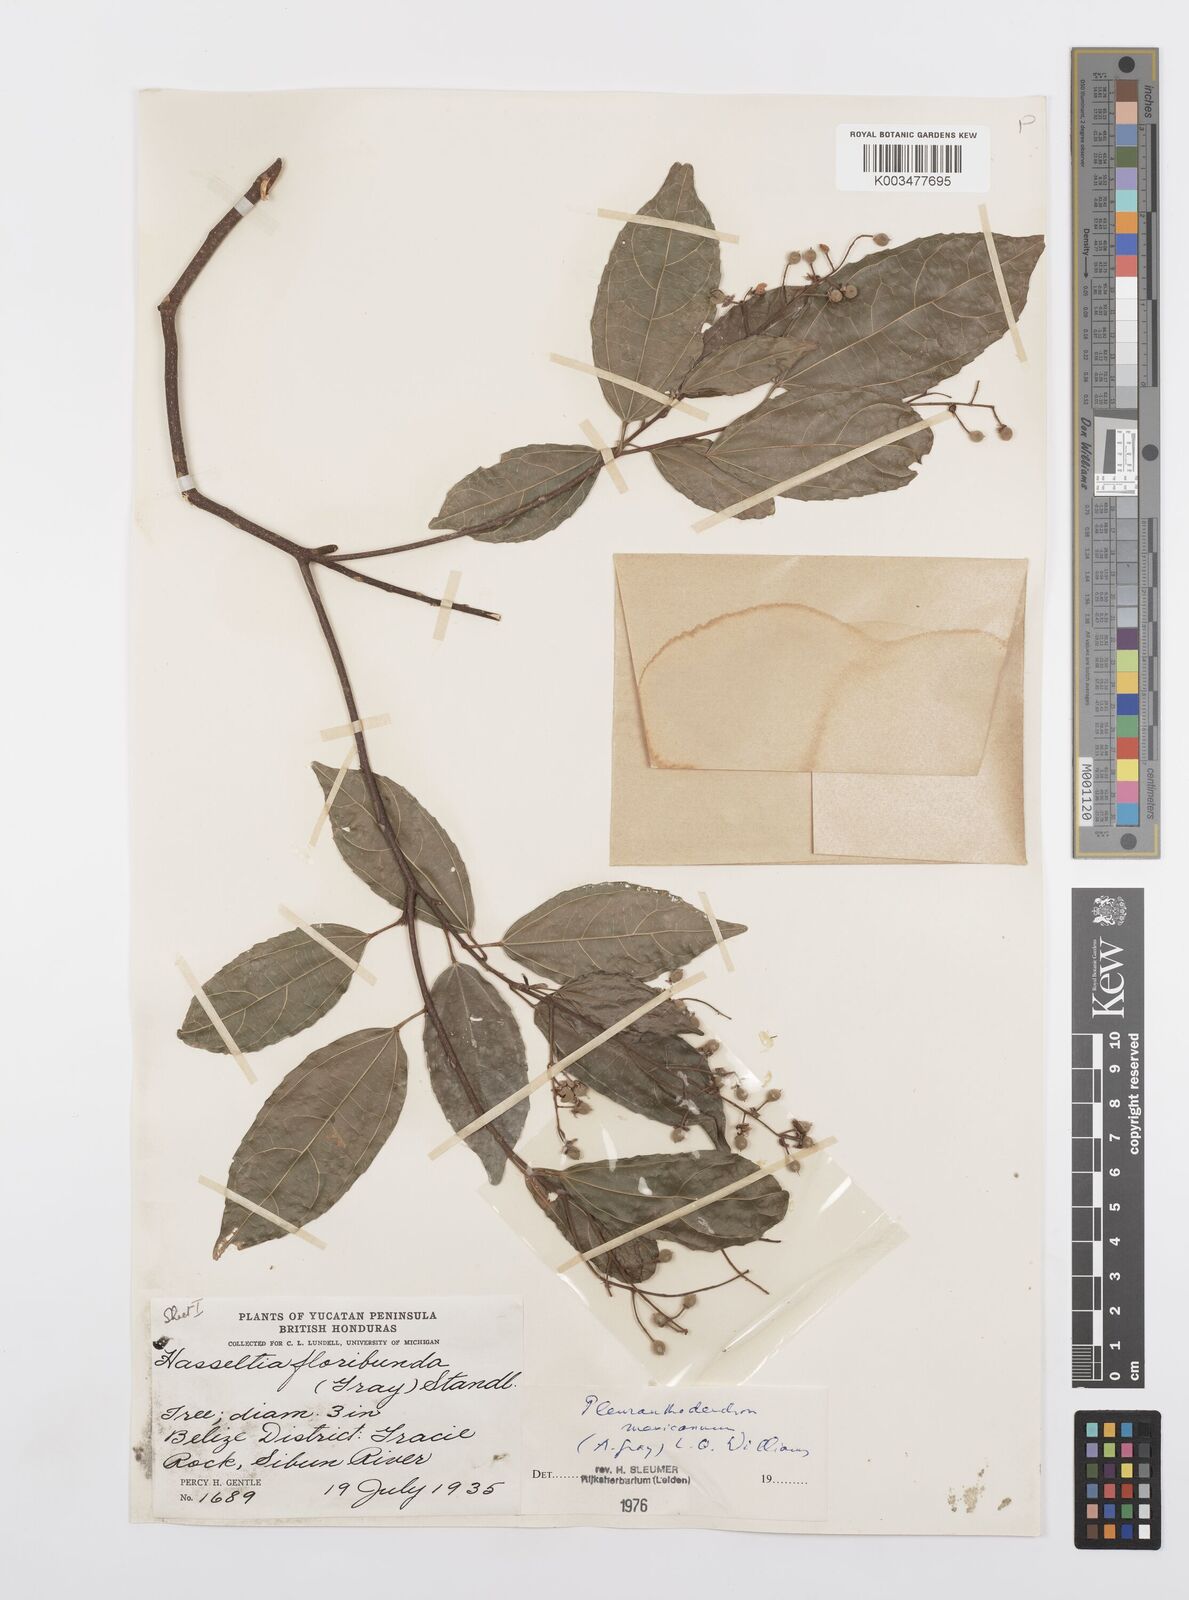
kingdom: Plantae
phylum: Tracheophyta
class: Magnoliopsida
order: Malpighiales
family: Salicaceae
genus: Pleuranthodendron
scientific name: Pleuranthodendron lindenii
